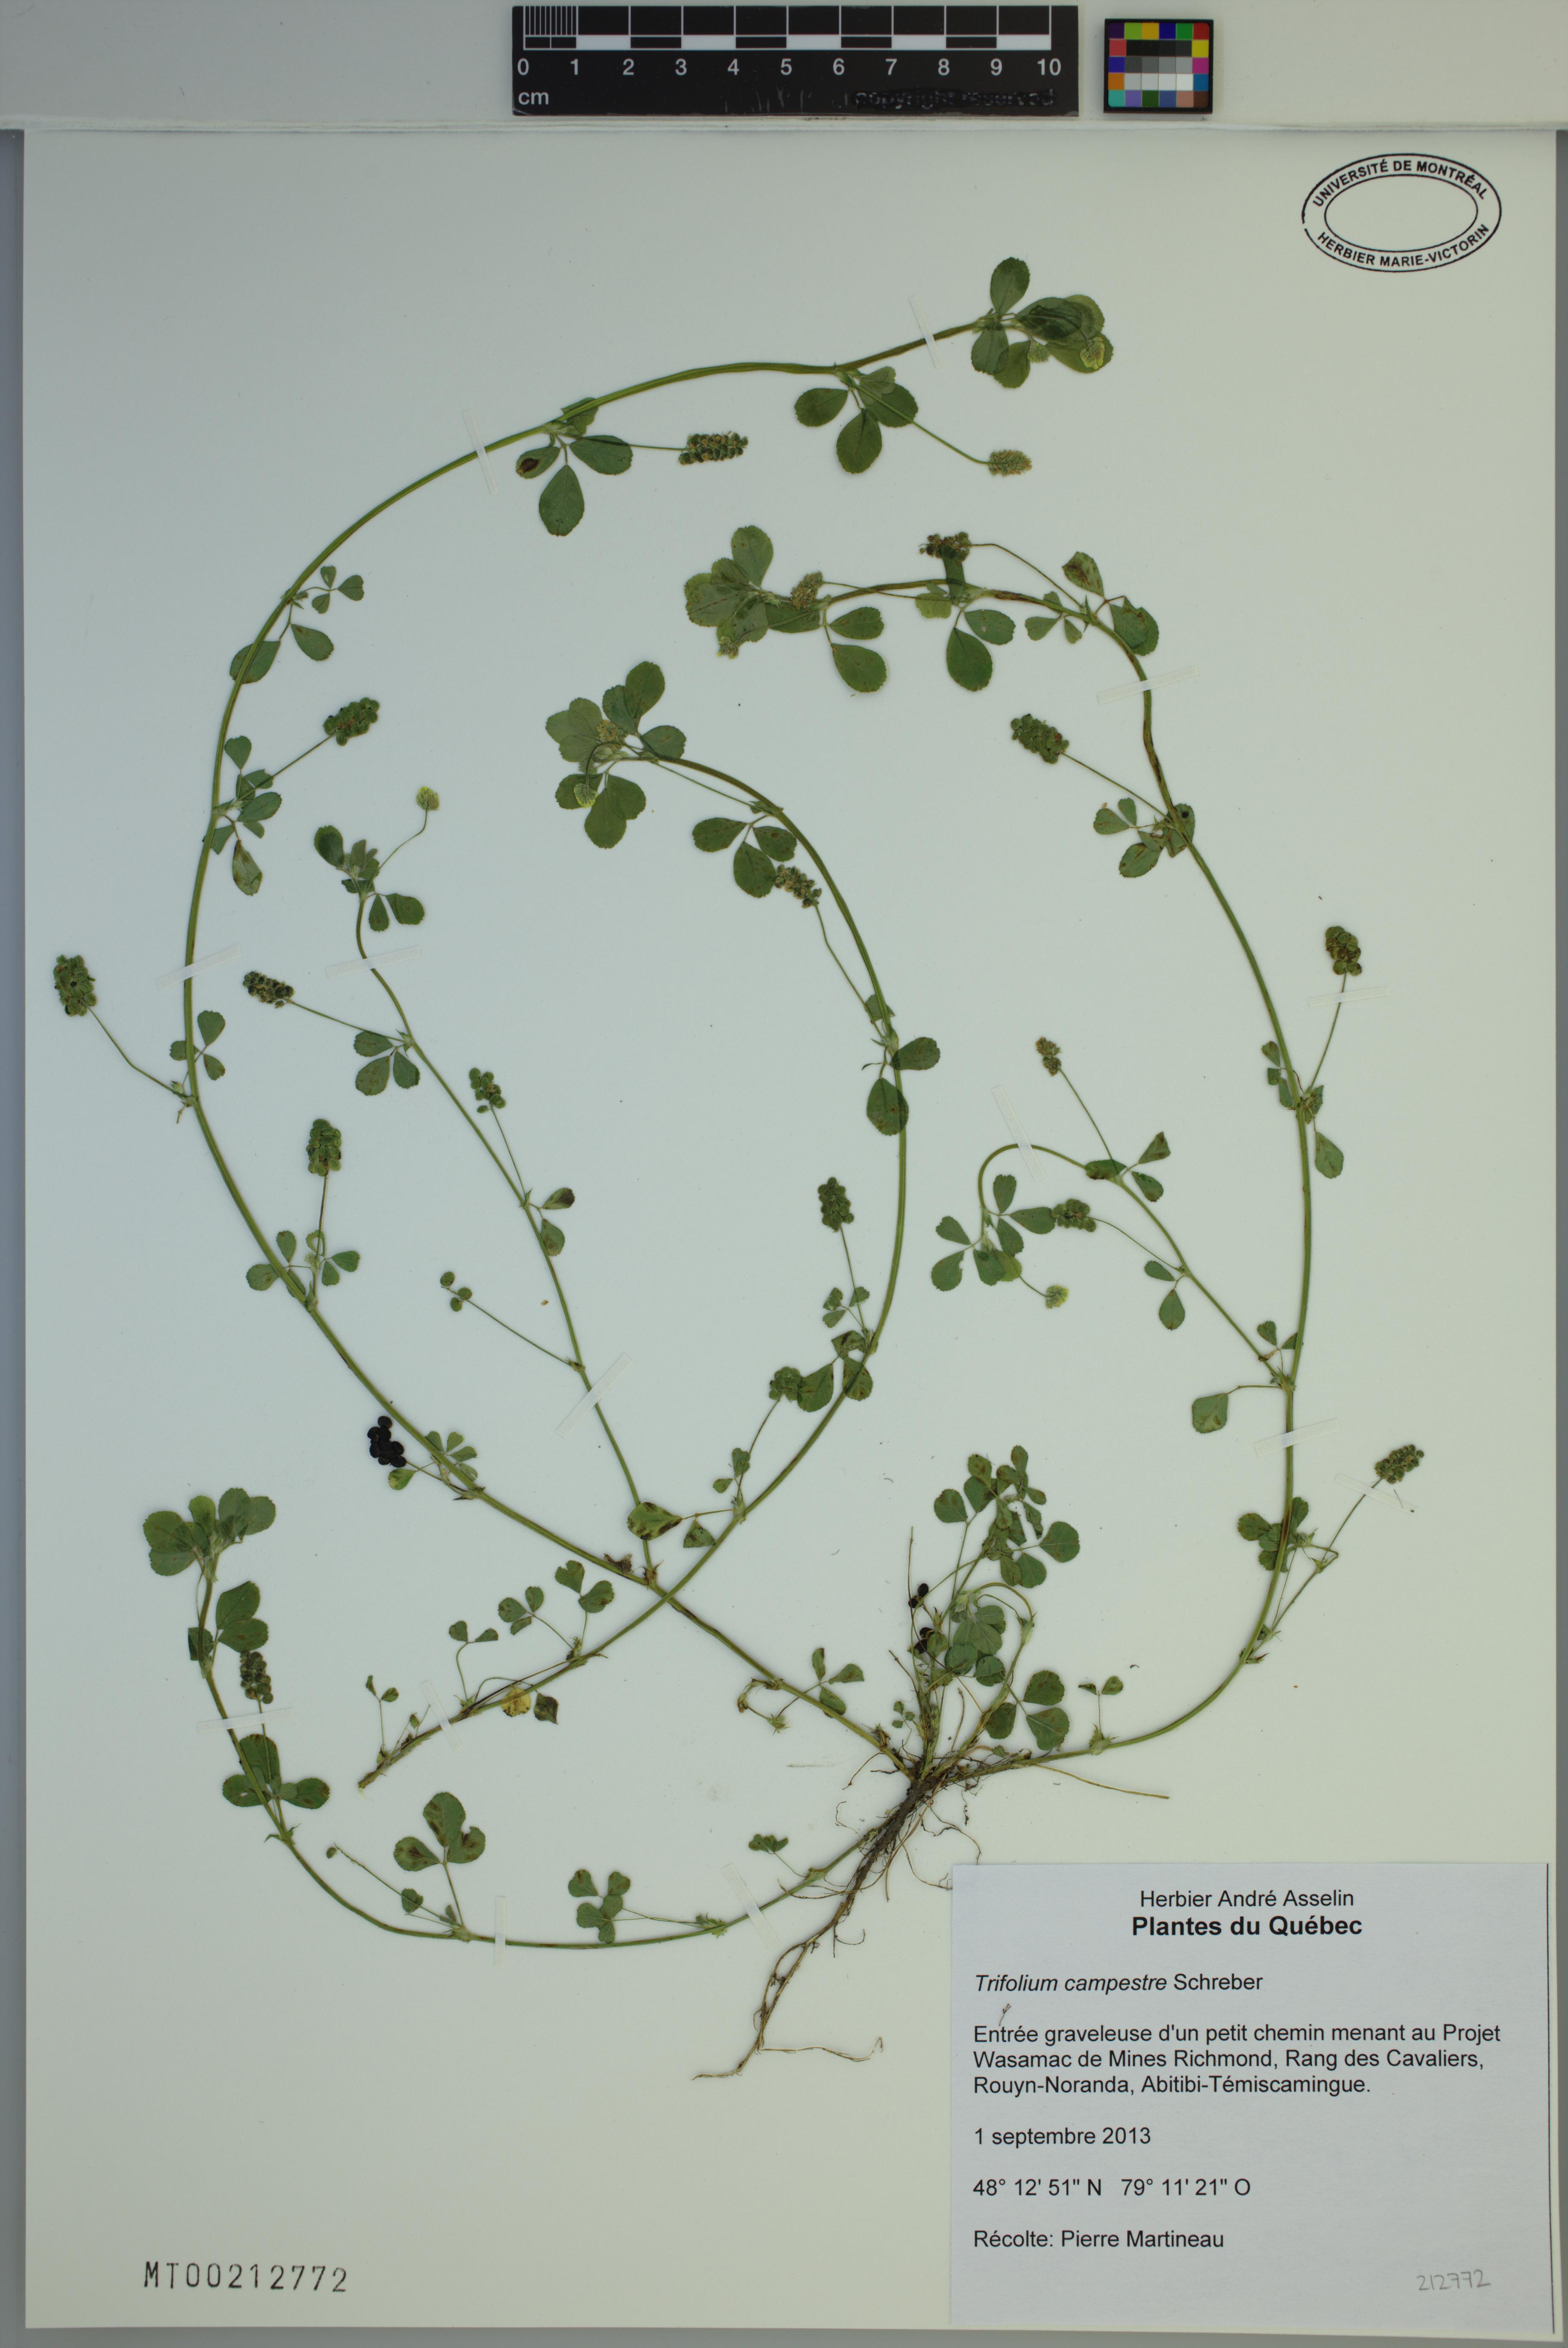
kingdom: Plantae
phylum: Tracheophyta
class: Magnoliopsida
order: Fabales
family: Fabaceae
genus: Trifolium
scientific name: Trifolium campestre
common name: Field clover
